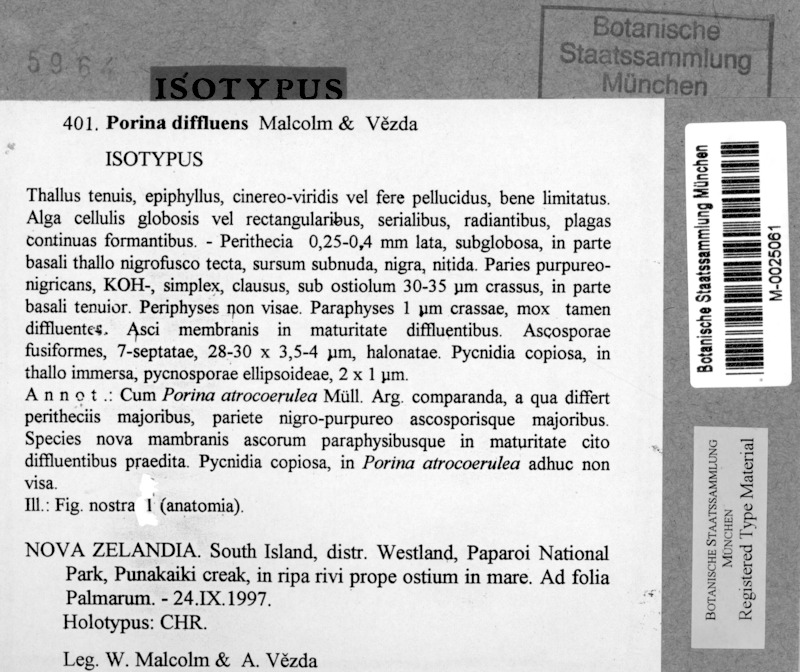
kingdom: Fungi
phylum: Ascomycota
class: Lecanoromycetes
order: Pertusariales
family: Pertusariaceae
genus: Porina
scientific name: Porina
